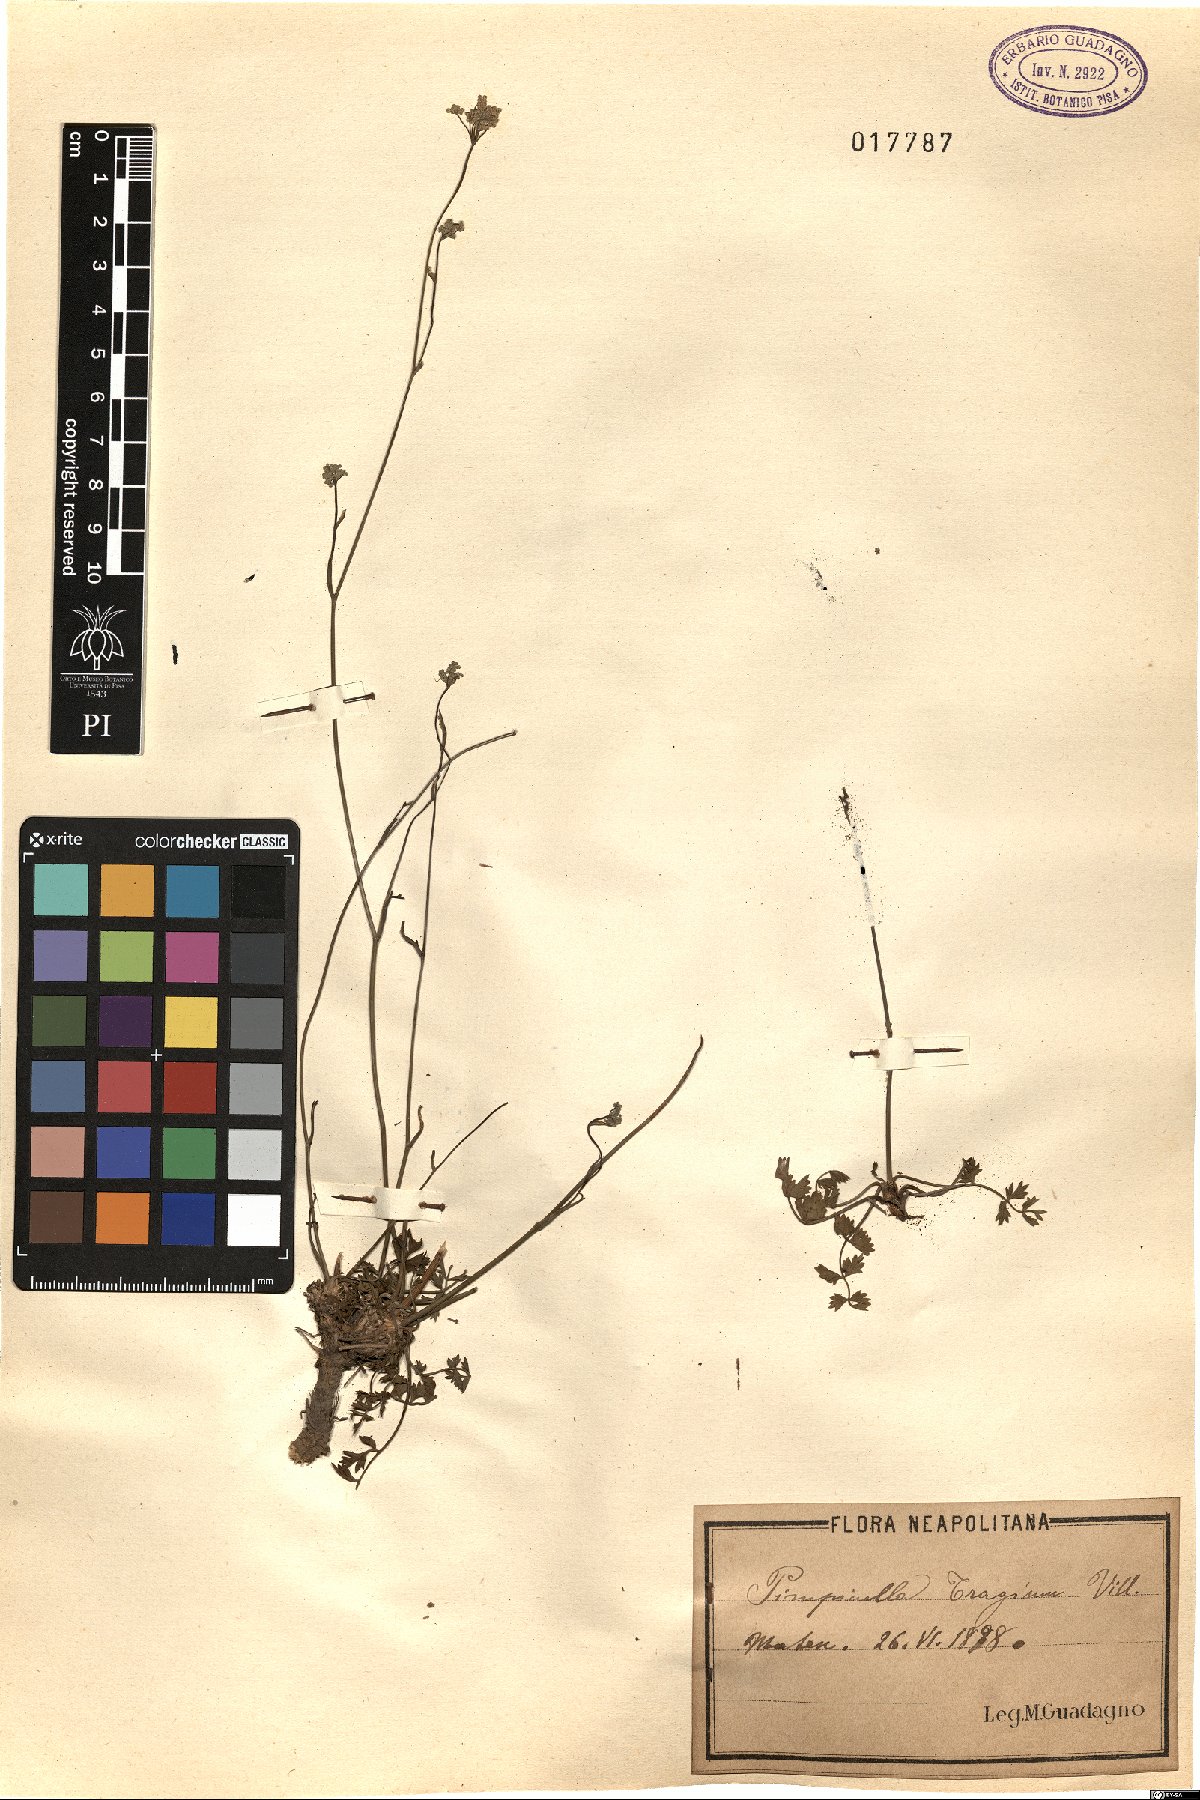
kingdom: Plantae
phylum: Tracheophyta
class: Magnoliopsida
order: Apiales
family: Apiaceae
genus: Pimpinella
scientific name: Pimpinella tragium
